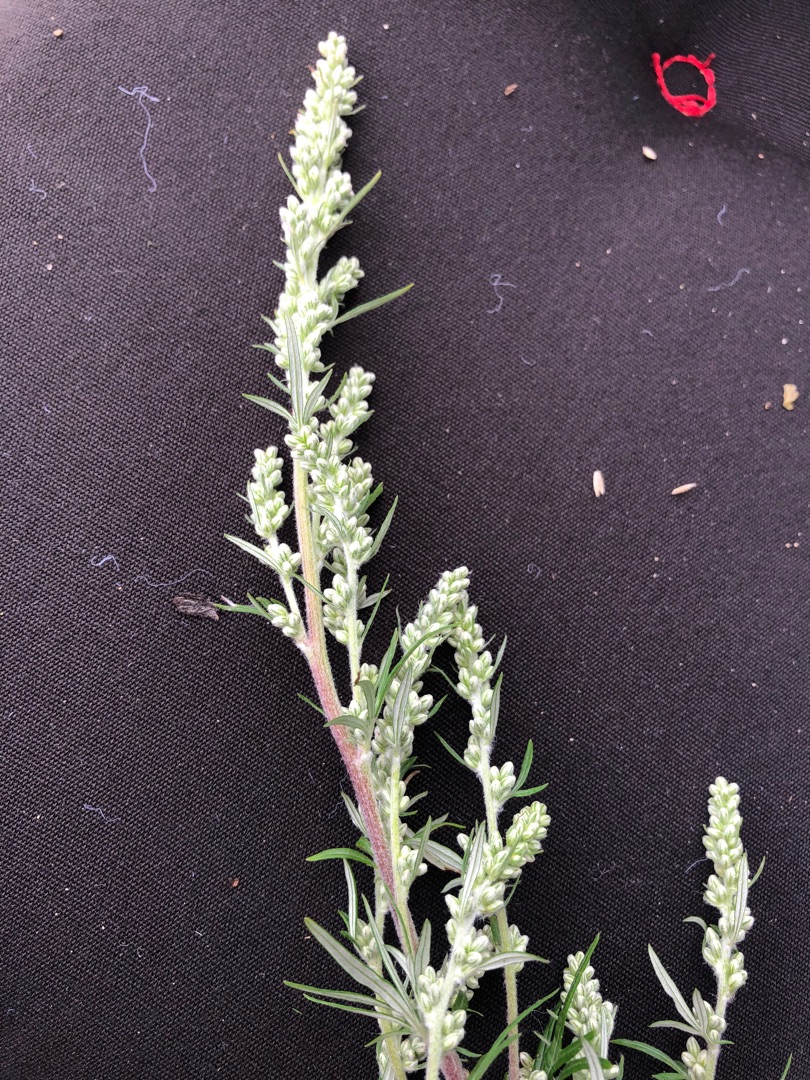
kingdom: Plantae
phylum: Tracheophyta
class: Magnoliopsida
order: Asterales
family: Asteraceae
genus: Artemisia
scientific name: Artemisia vulgaris
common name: Grå-bynke
